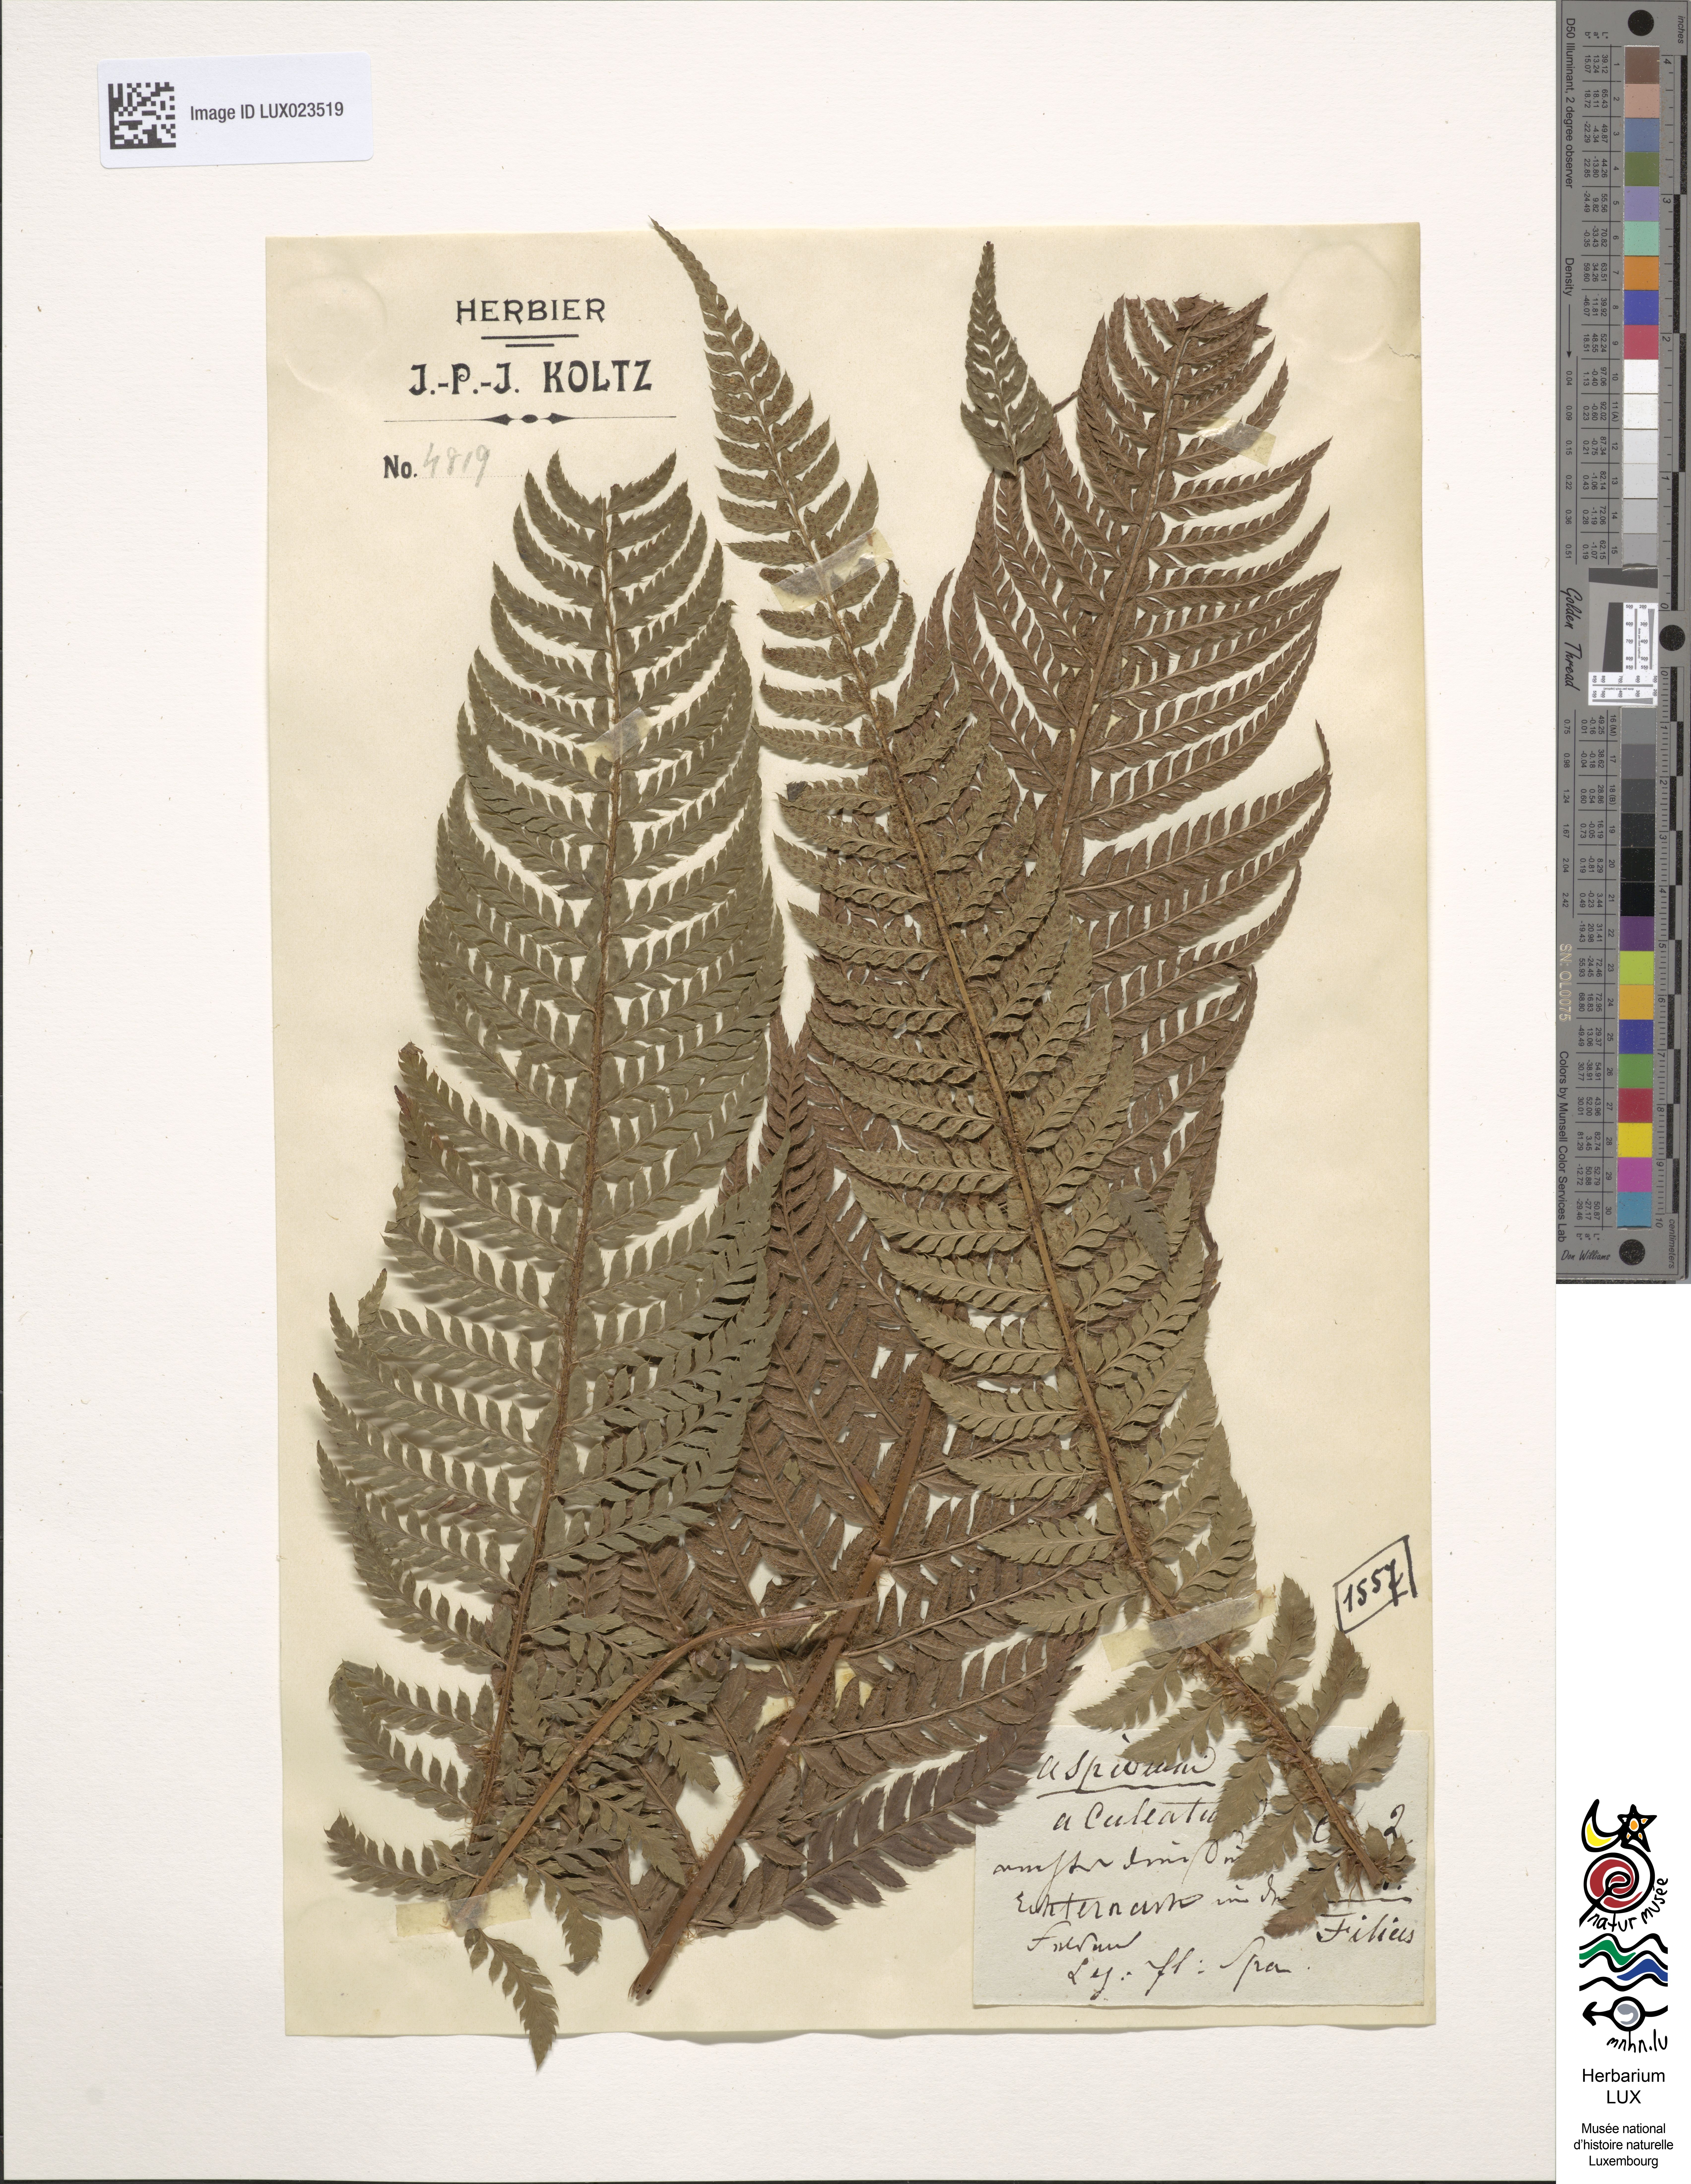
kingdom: Plantae
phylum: Tracheophyta
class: Polypodiopsida
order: Polypodiales
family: Dryopteridaceae
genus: Polystichum
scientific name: Polystichum aculeatum
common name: Hard shield-fern
